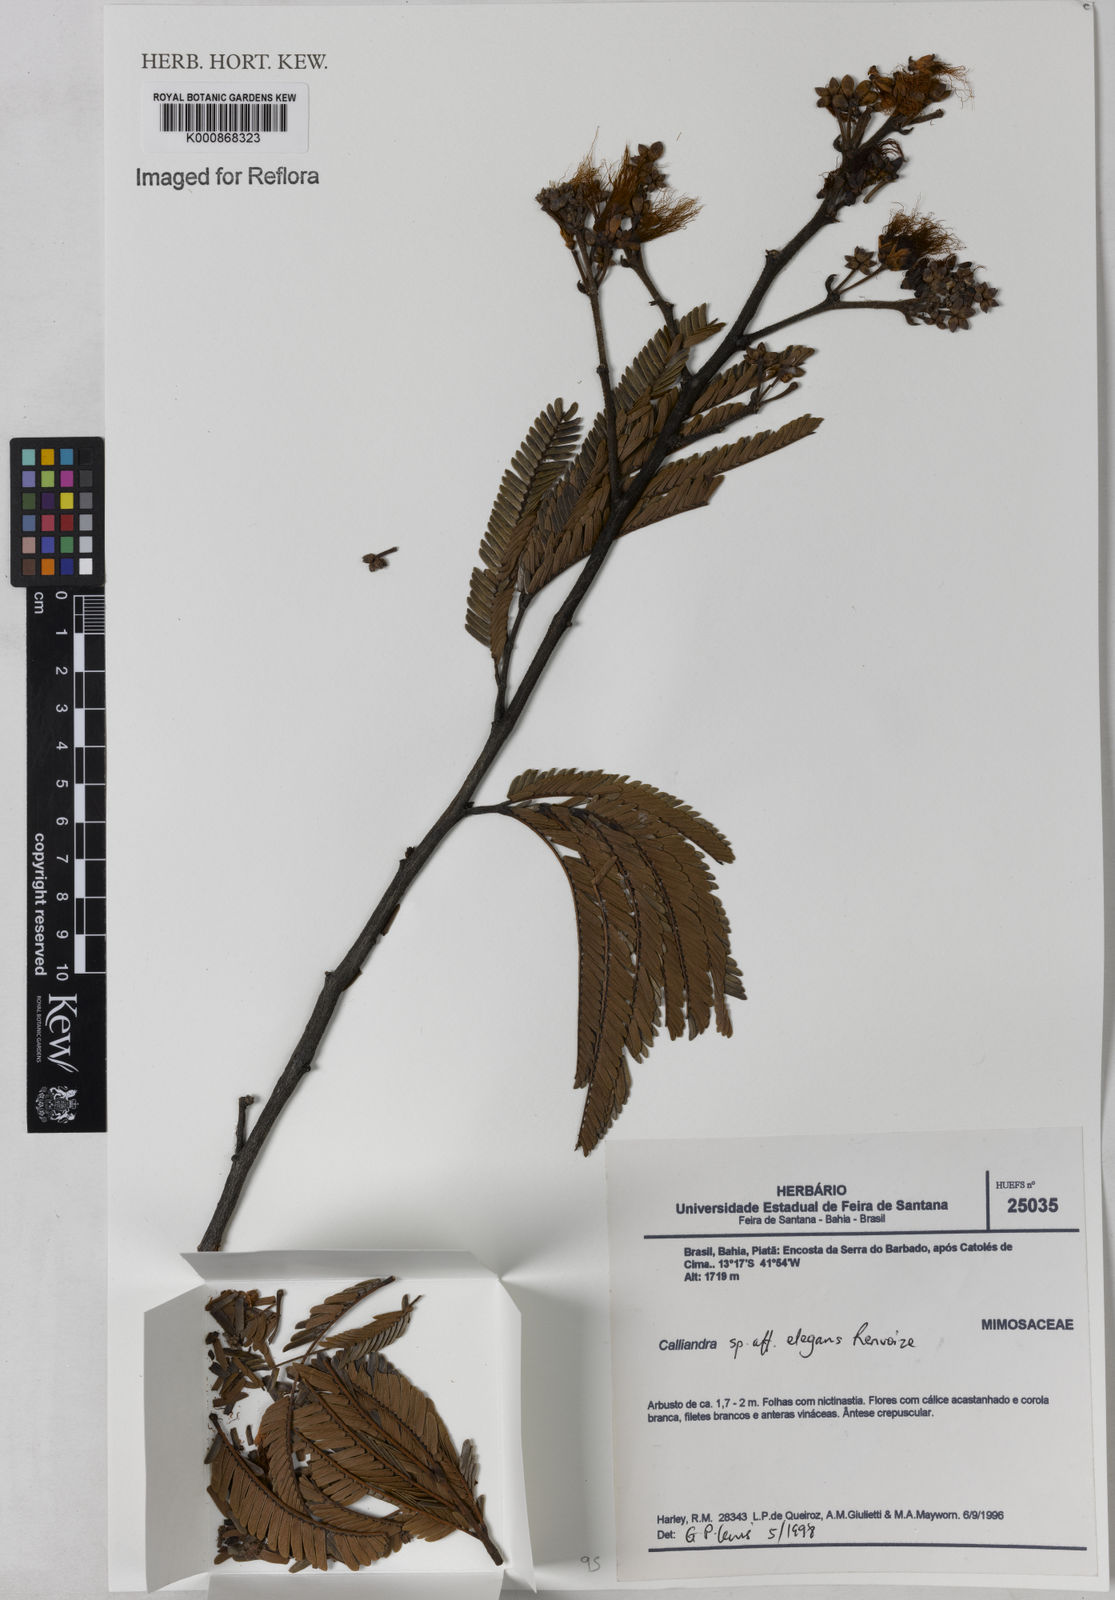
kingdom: Plantae
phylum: Tracheophyta
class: Magnoliopsida
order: Fabales
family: Fabaceae
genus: Calliandra
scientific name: Calliandra elegans
